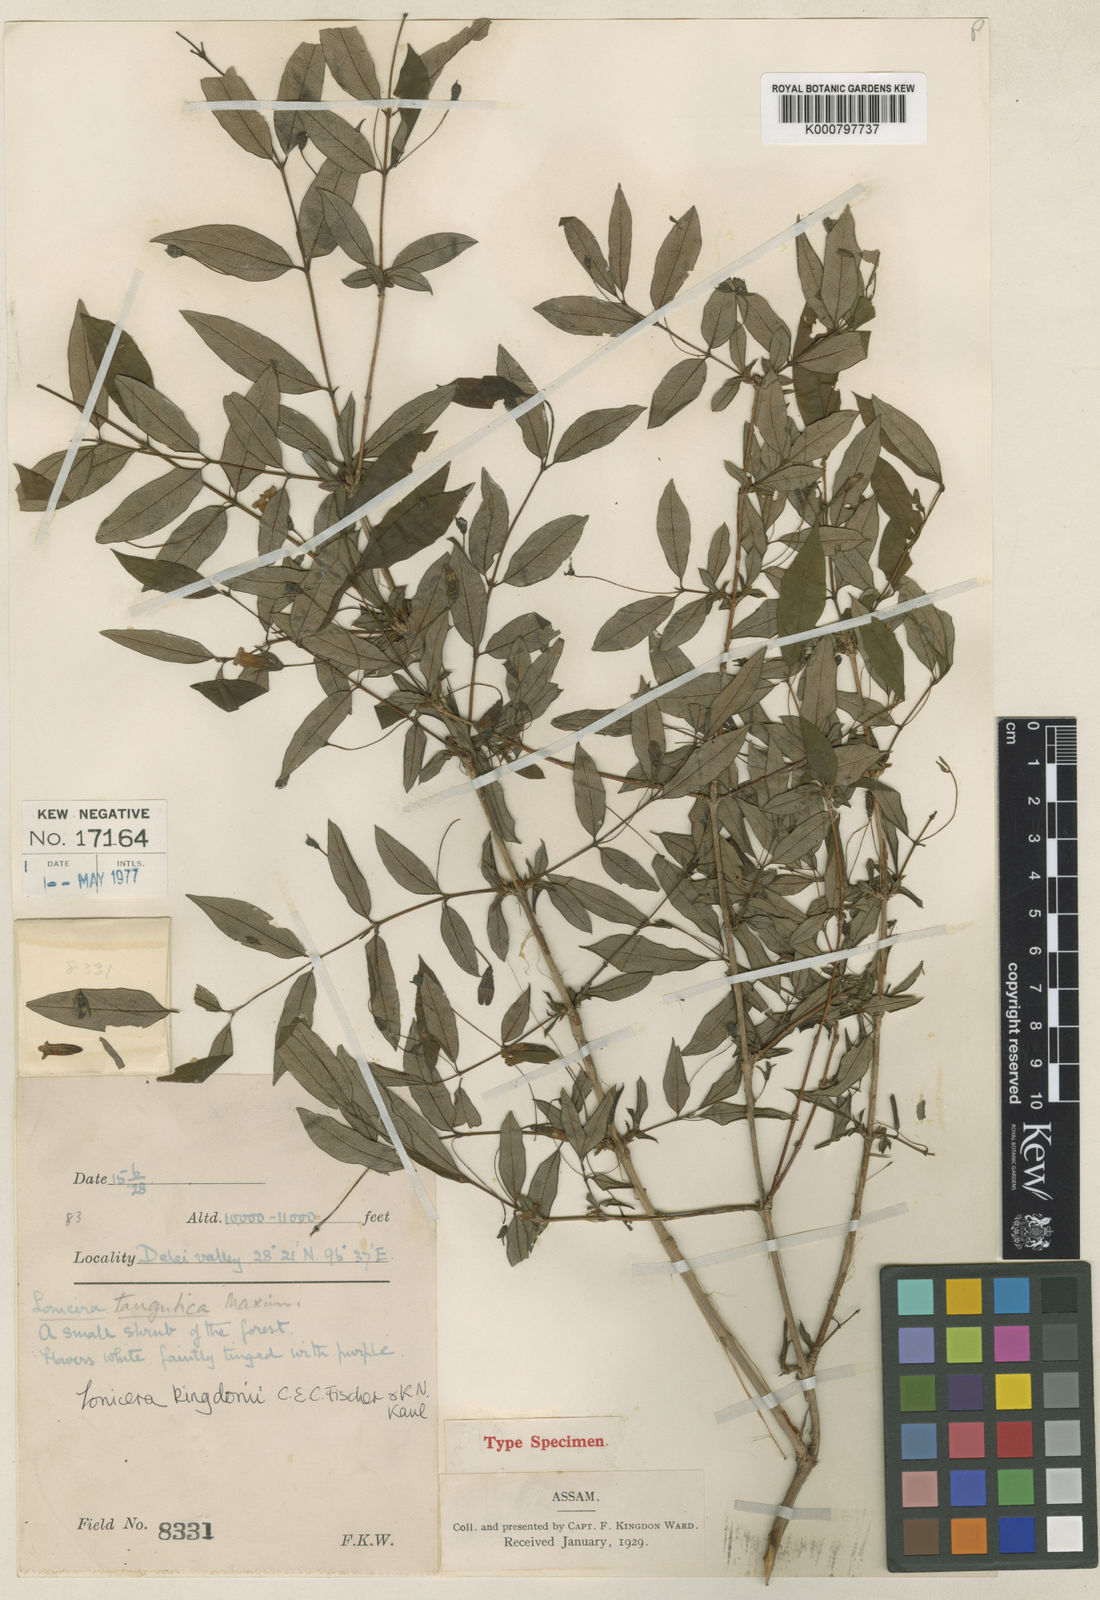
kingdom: Plantae
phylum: Tracheophyta
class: Magnoliopsida
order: Dipsacales
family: Caprifoliaceae
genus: Lonicera
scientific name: Lonicera tangutica
